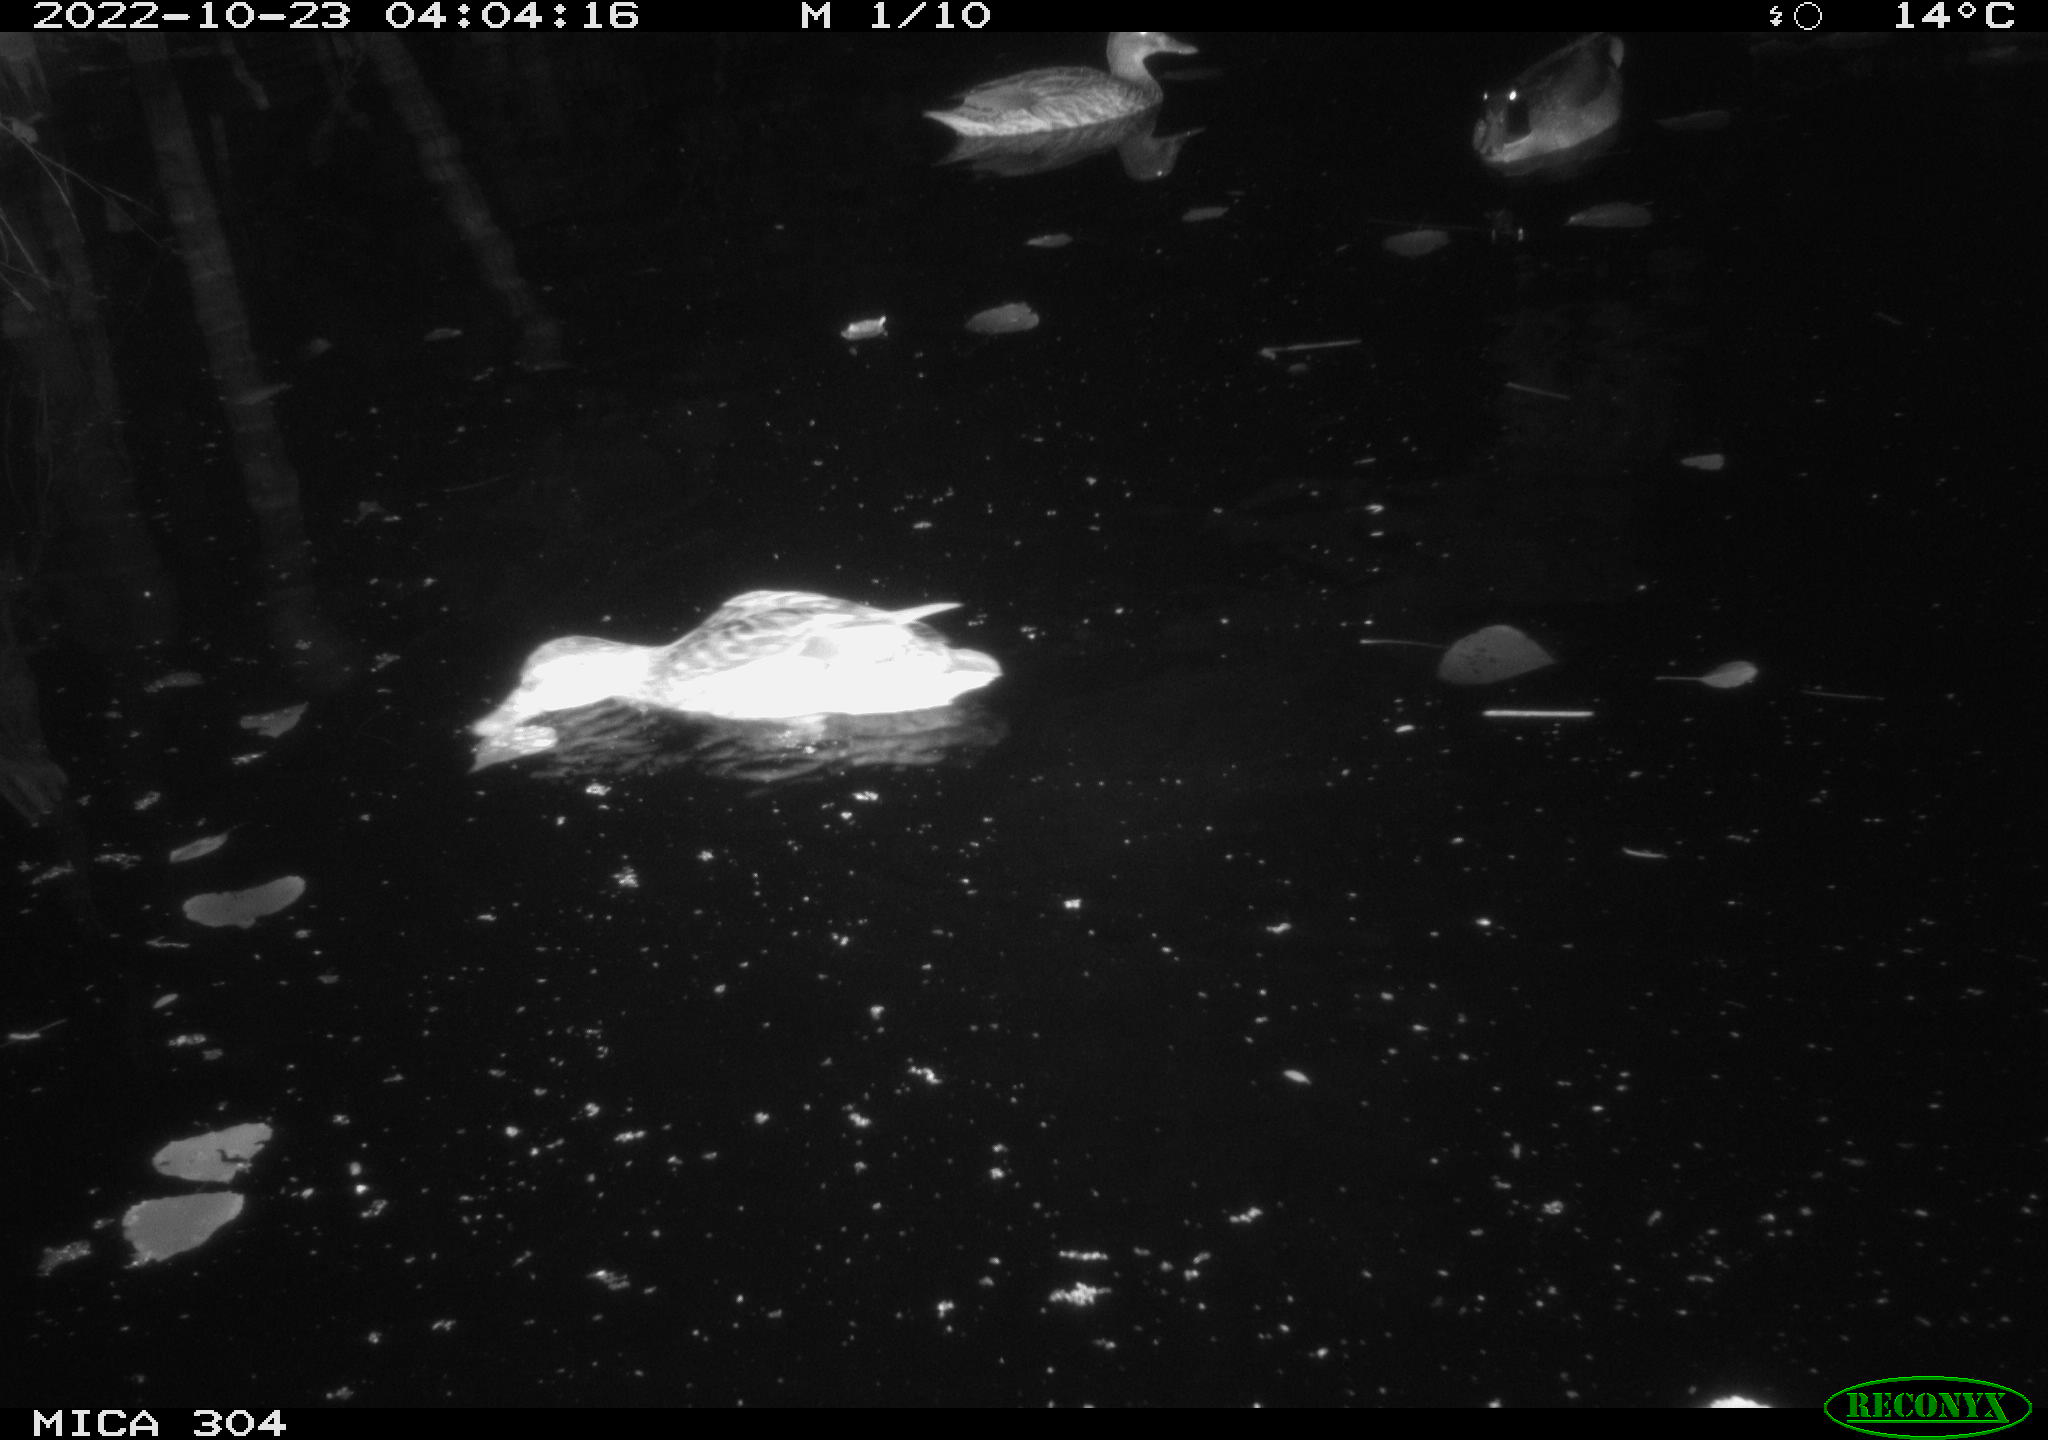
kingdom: Animalia
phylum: Chordata
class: Aves
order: Anseriformes
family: Anatidae
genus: Anas
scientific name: Anas
